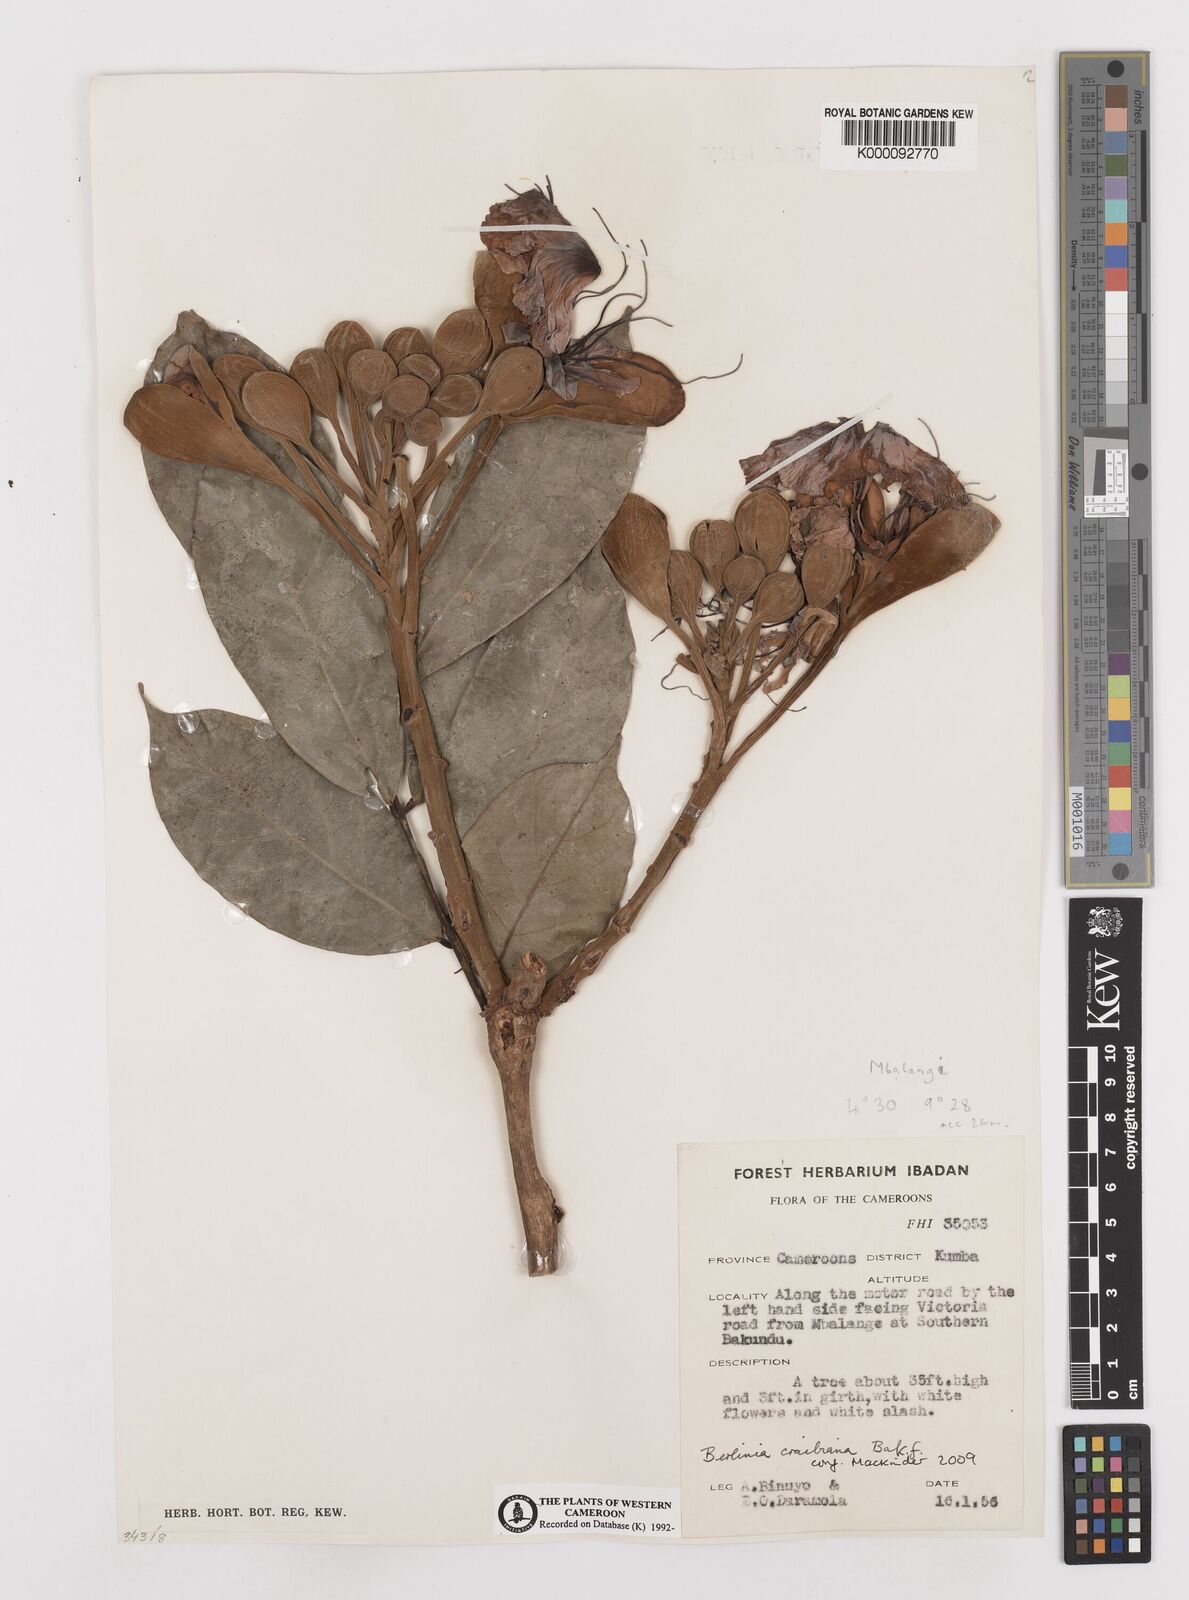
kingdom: Plantae
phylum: Tracheophyta
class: Magnoliopsida
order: Fabales
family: Fabaceae
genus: Berlinia
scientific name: Berlinia craibiana
